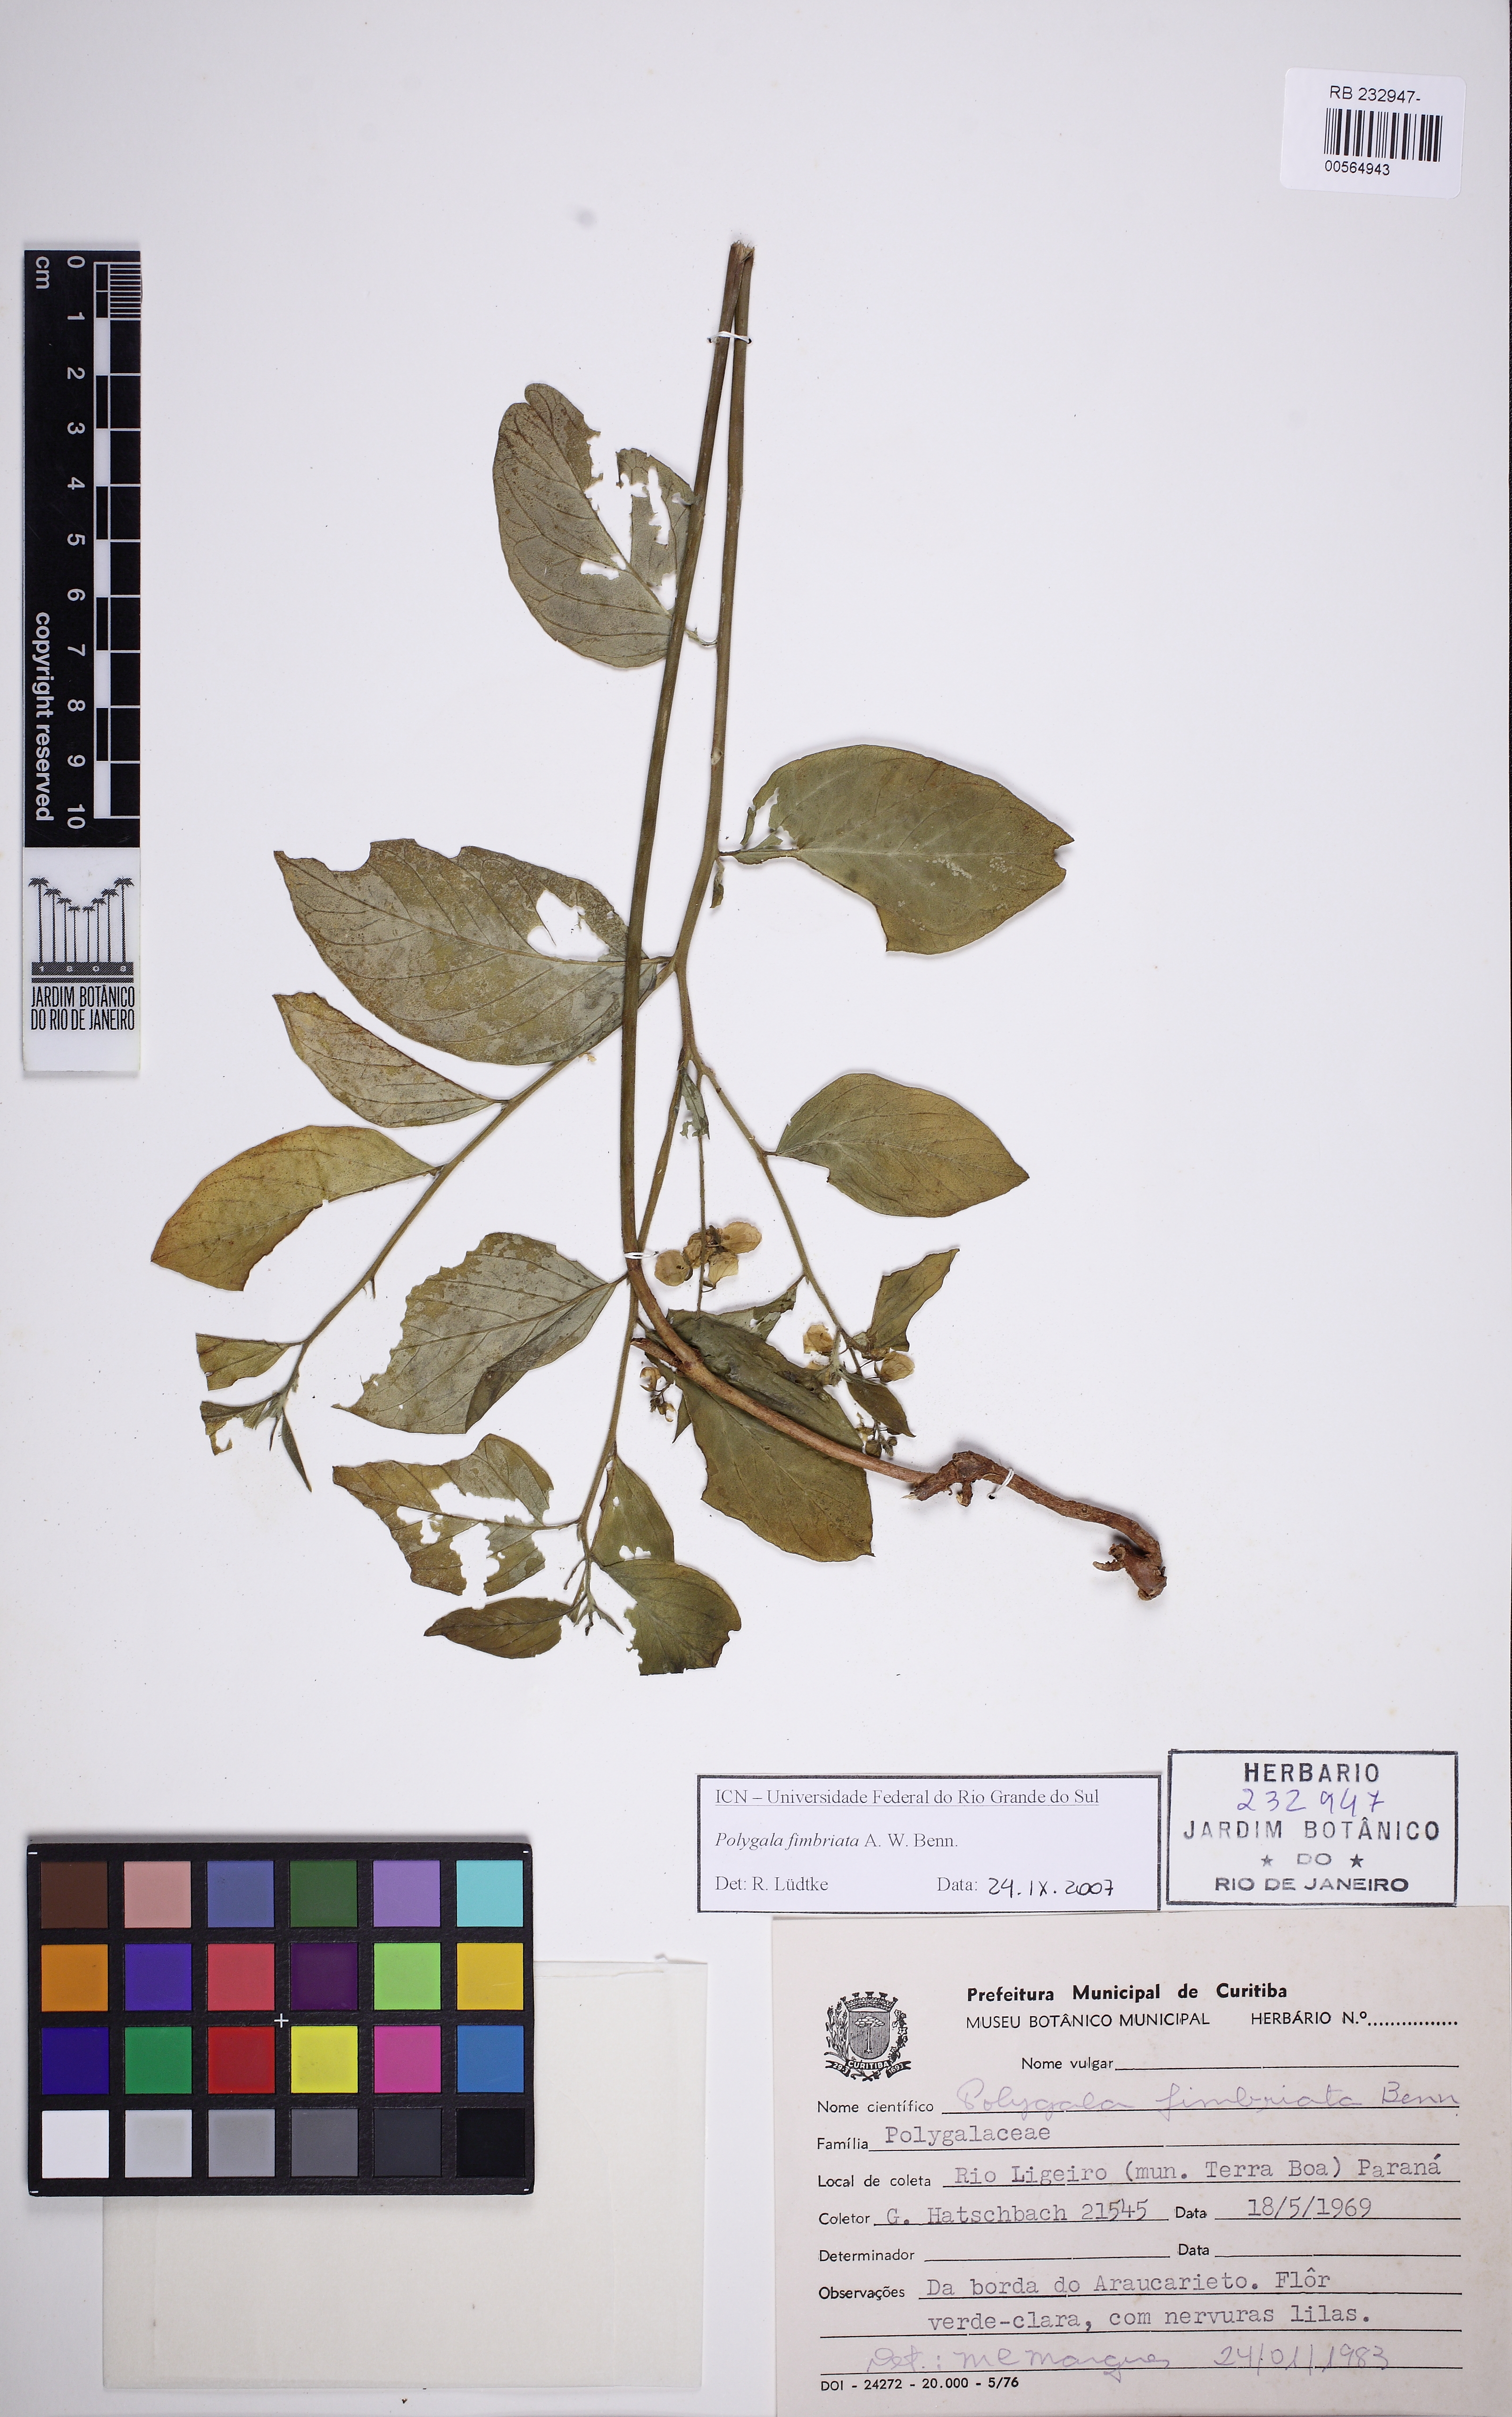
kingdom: Plantae
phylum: Tracheophyta
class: Magnoliopsida
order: Fabales
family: Polygalaceae
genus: Asemeia
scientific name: Asemeia acuminata
